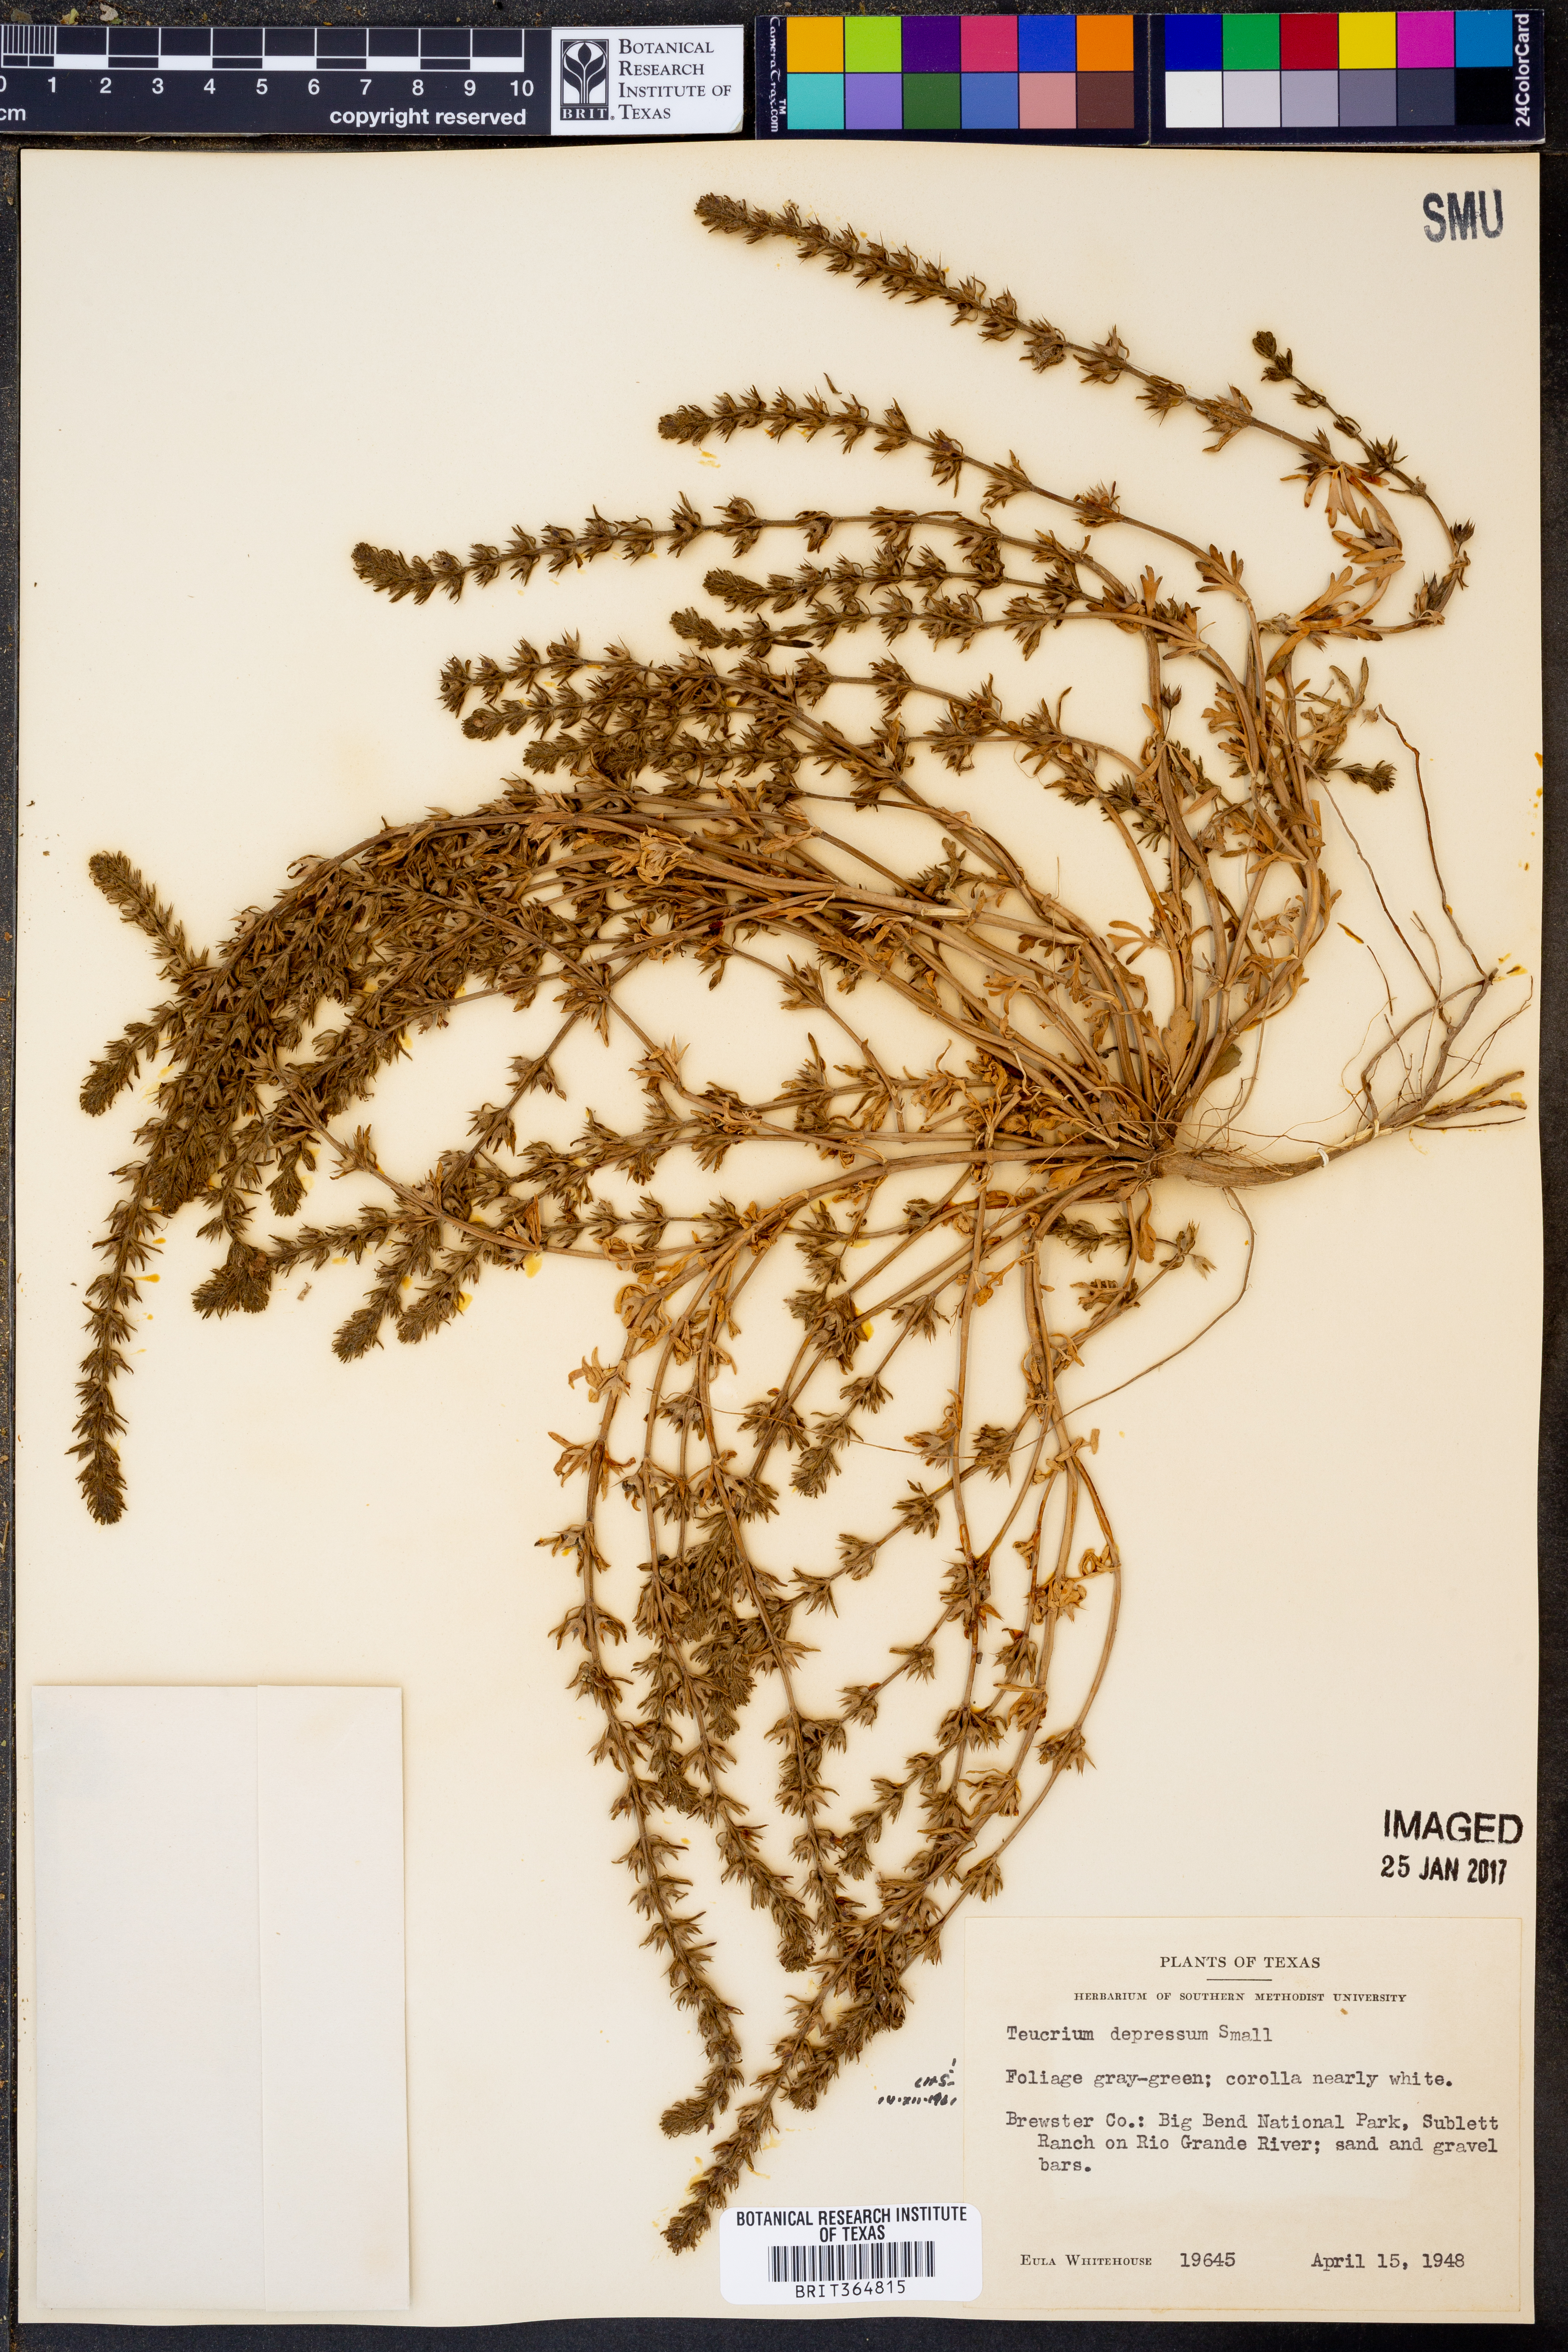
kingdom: Plantae
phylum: Tracheophyta
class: Magnoliopsida
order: Lamiales
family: Lamiaceae
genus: Teucrium
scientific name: Teucrium depressum
